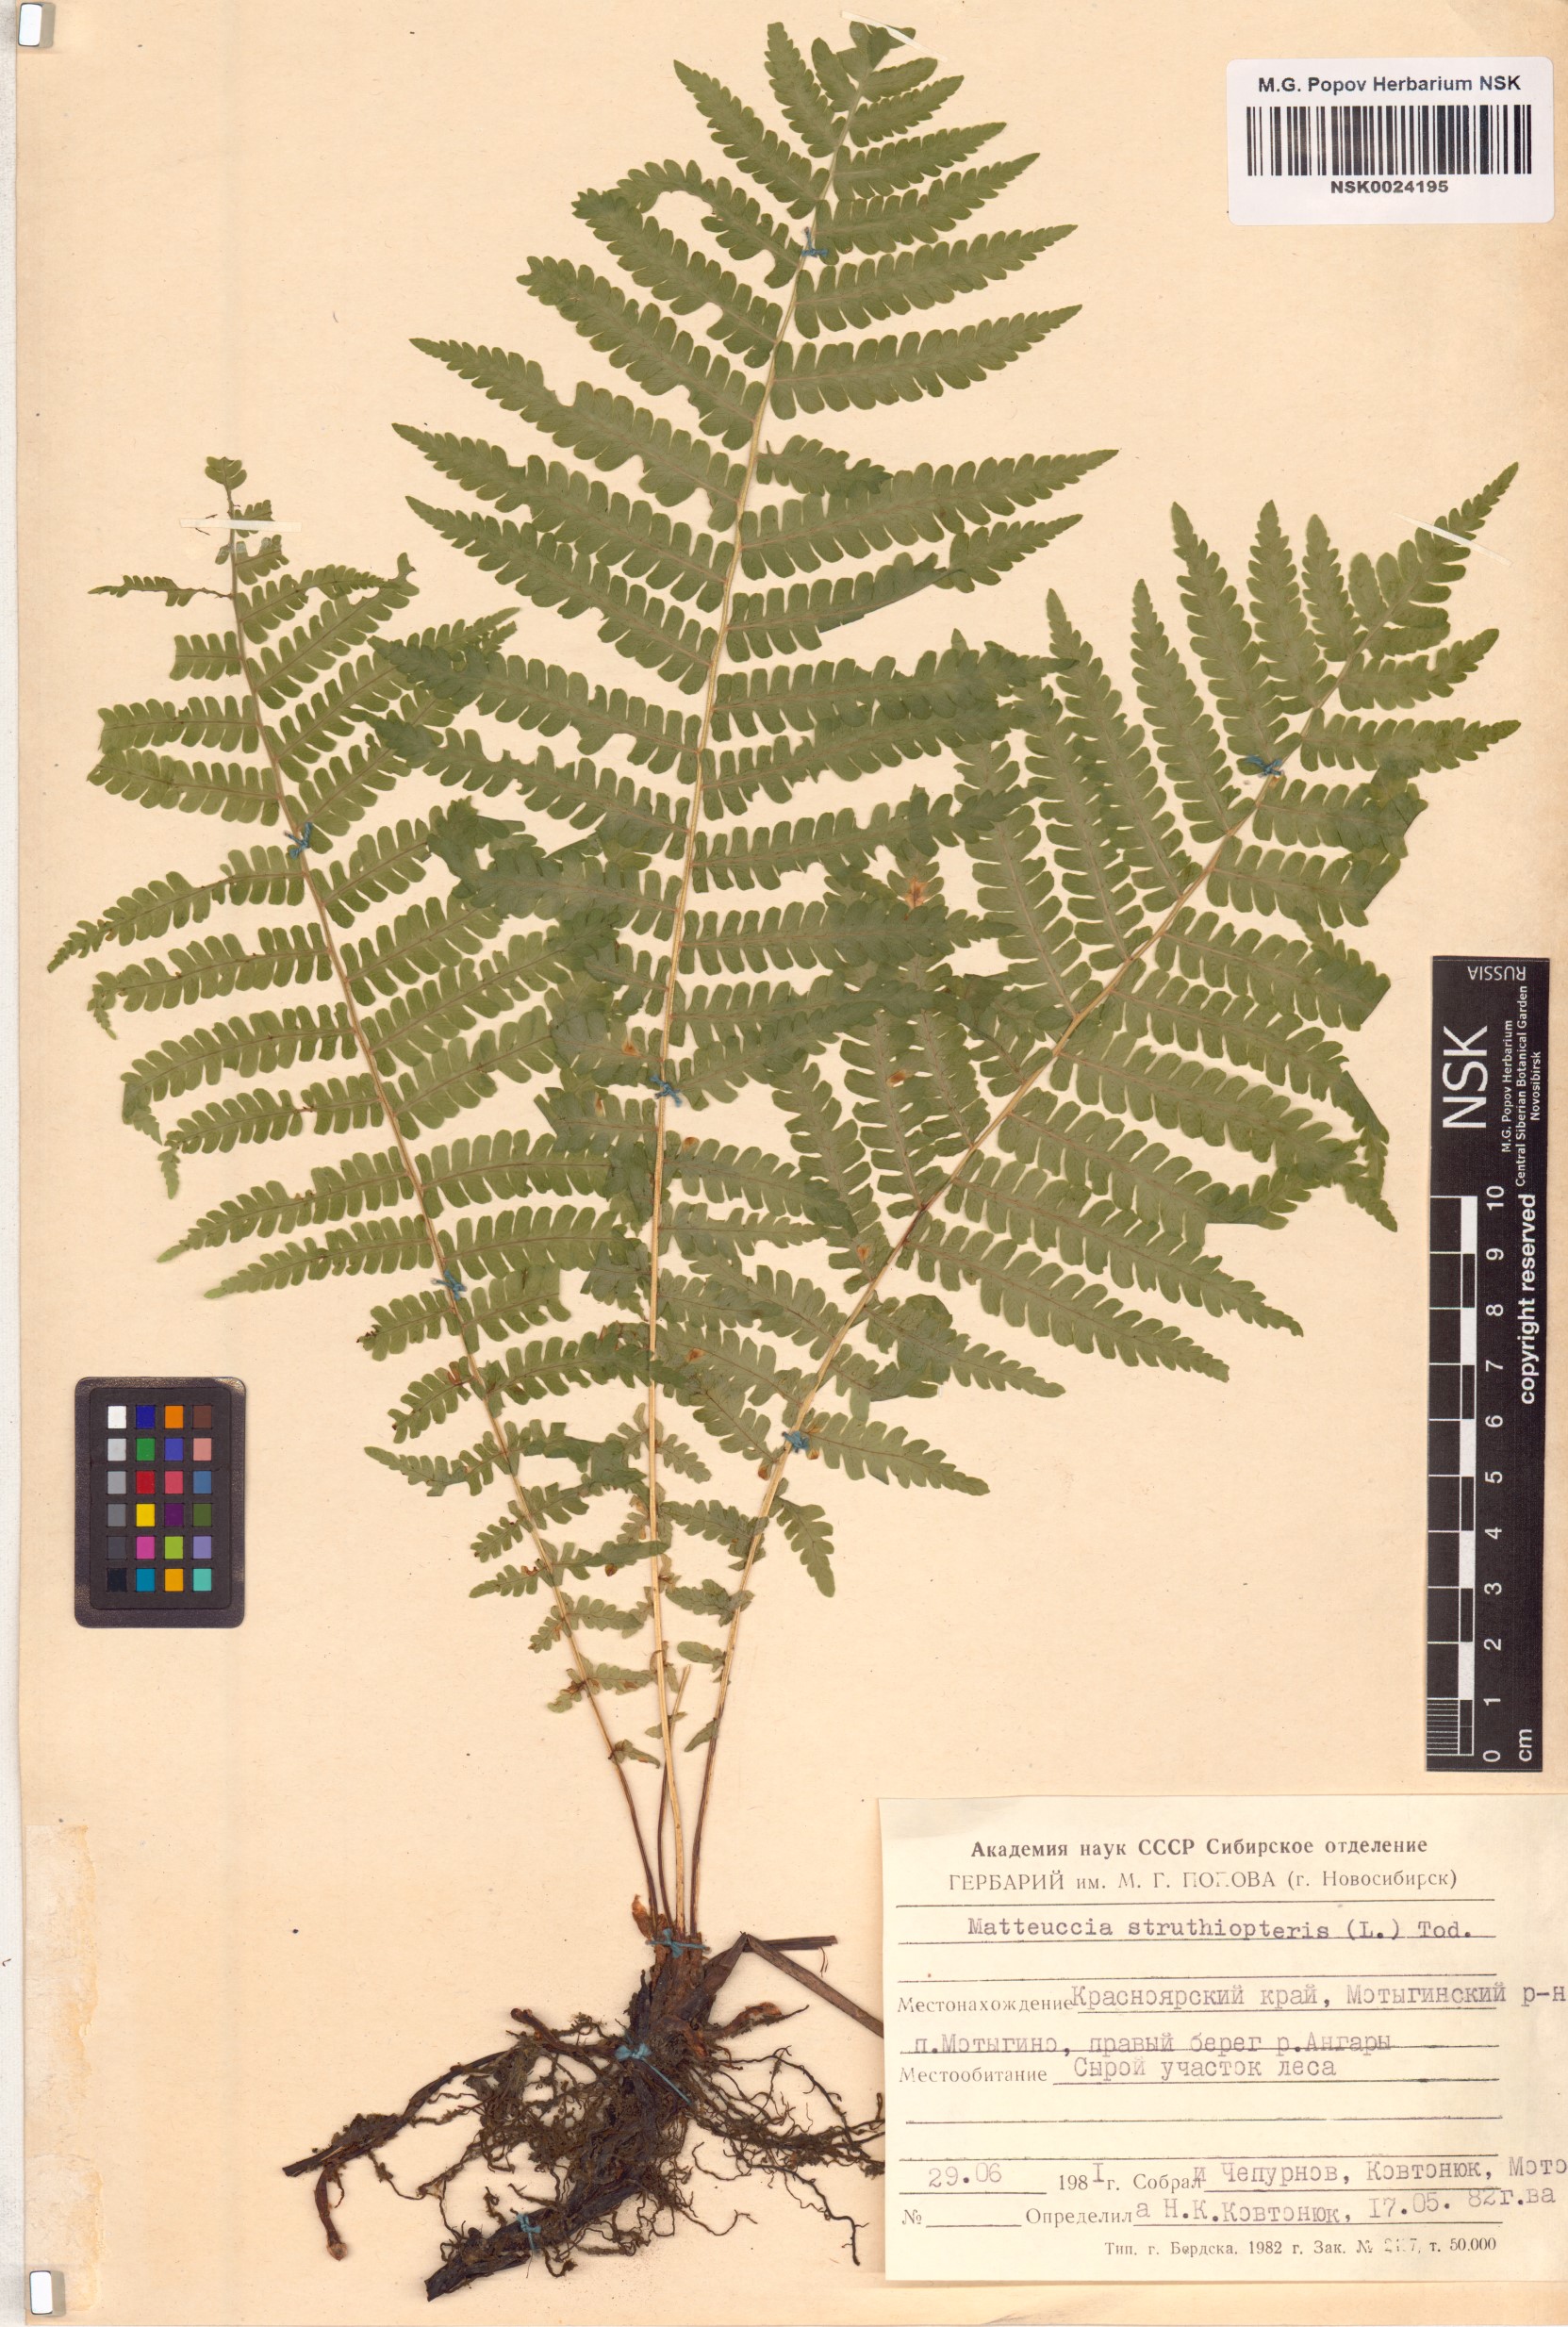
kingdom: Plantae
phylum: Tracheophyta
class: Polypodiopsida
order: Polypodiales
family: Onocleaceae
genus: Matteuccia
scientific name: Matteuccia struthiopteris
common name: Ostrich fern
